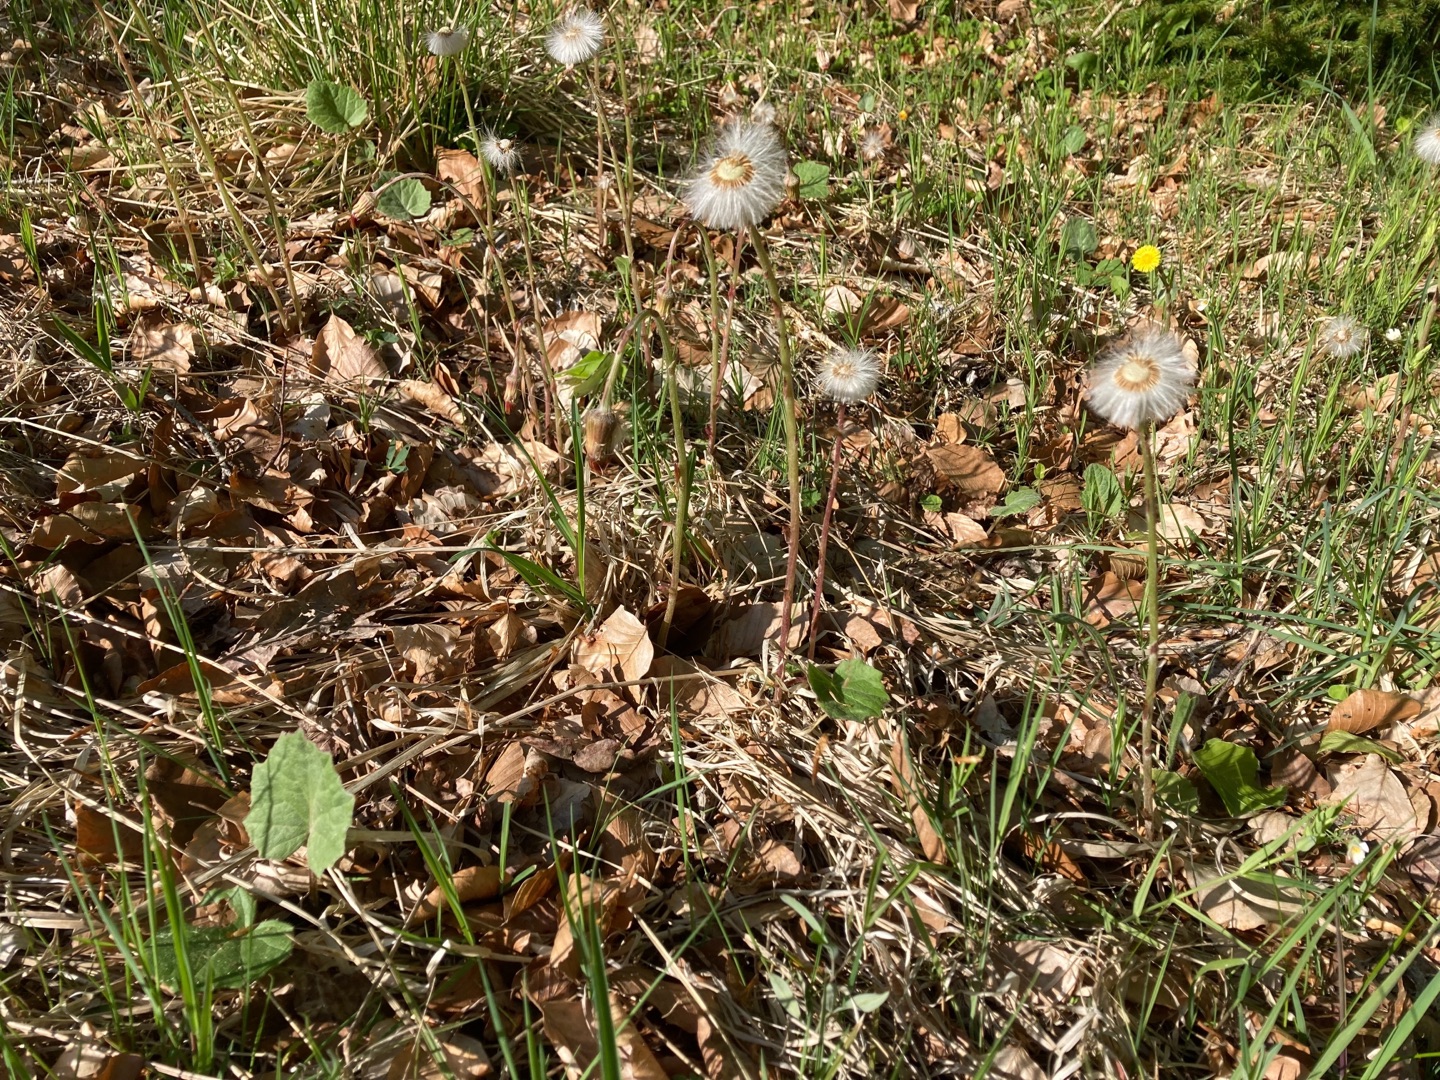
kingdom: Plantae
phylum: Tracheophyta
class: Magnoliopsida
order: Asterales
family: Asteraceae
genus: Tussilago
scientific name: Tussilago farfara
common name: Følfod
